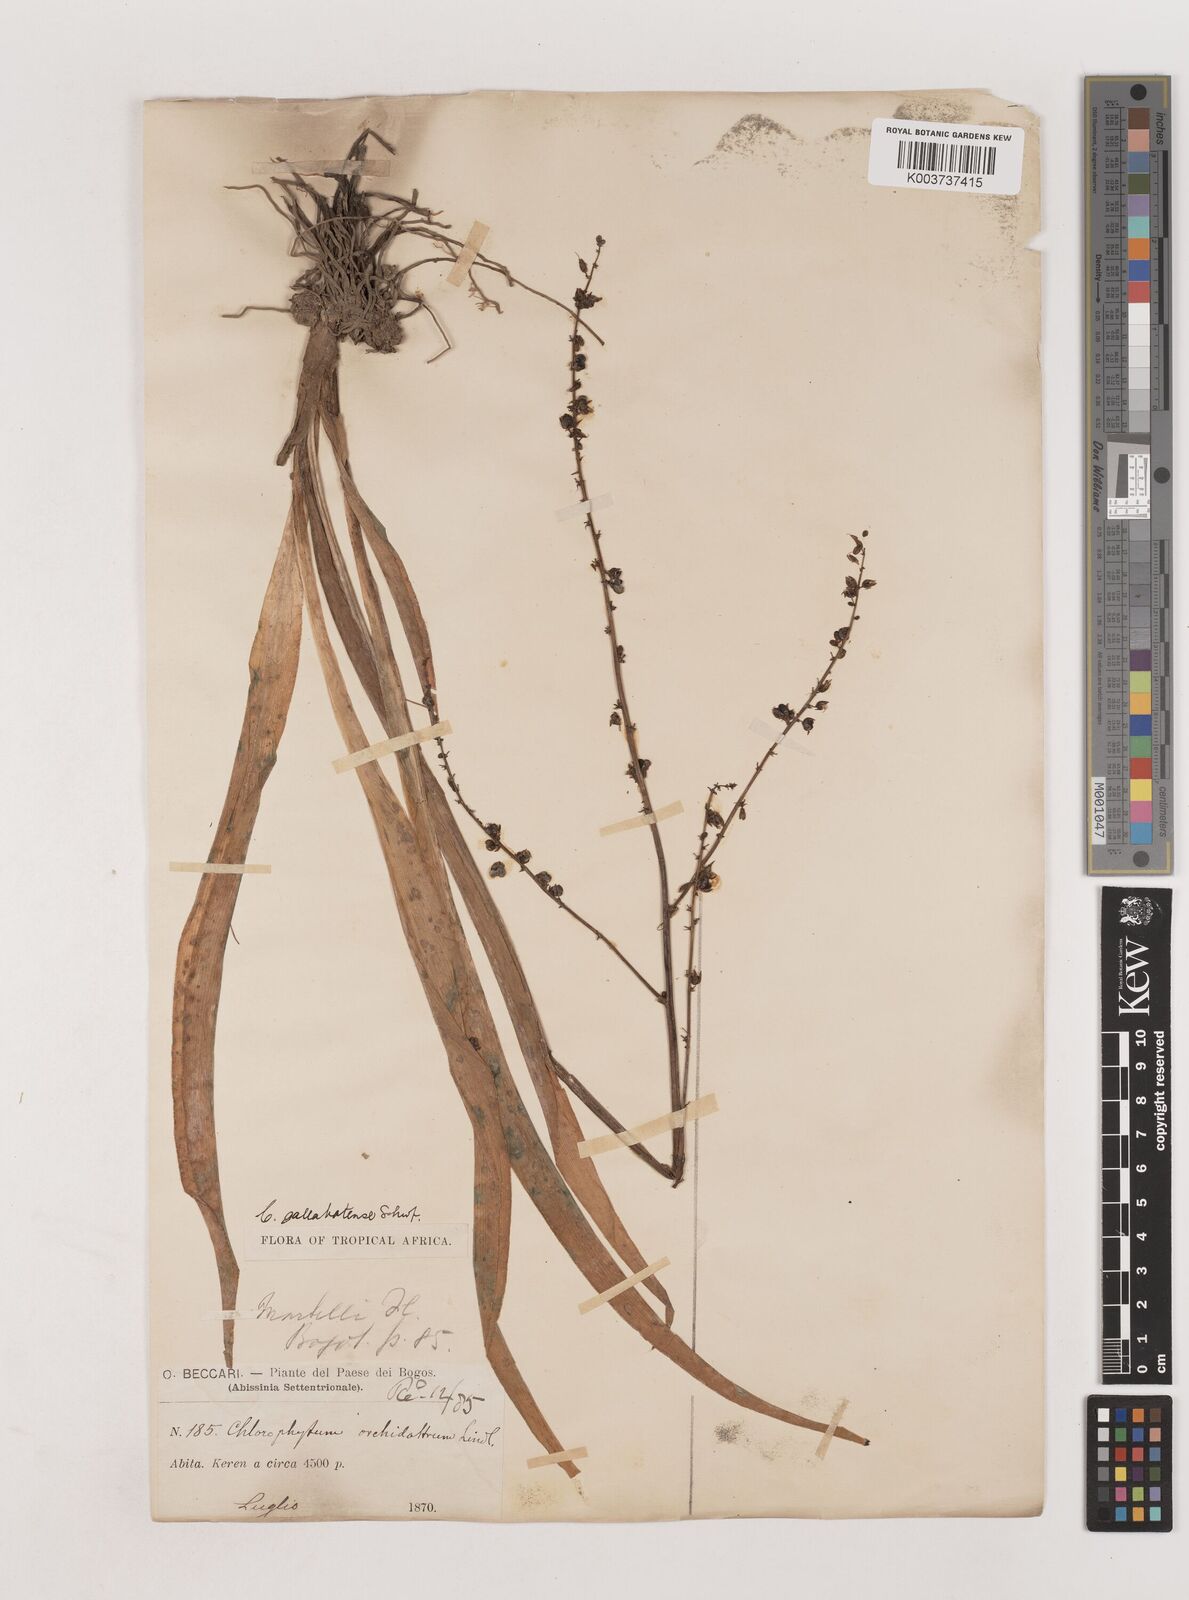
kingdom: Plantae
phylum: Tracheophyta
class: Liliopsida
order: Asparagales
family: Asparagaceae
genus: Chlorophytum
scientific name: Chlorophytum gallabatense
